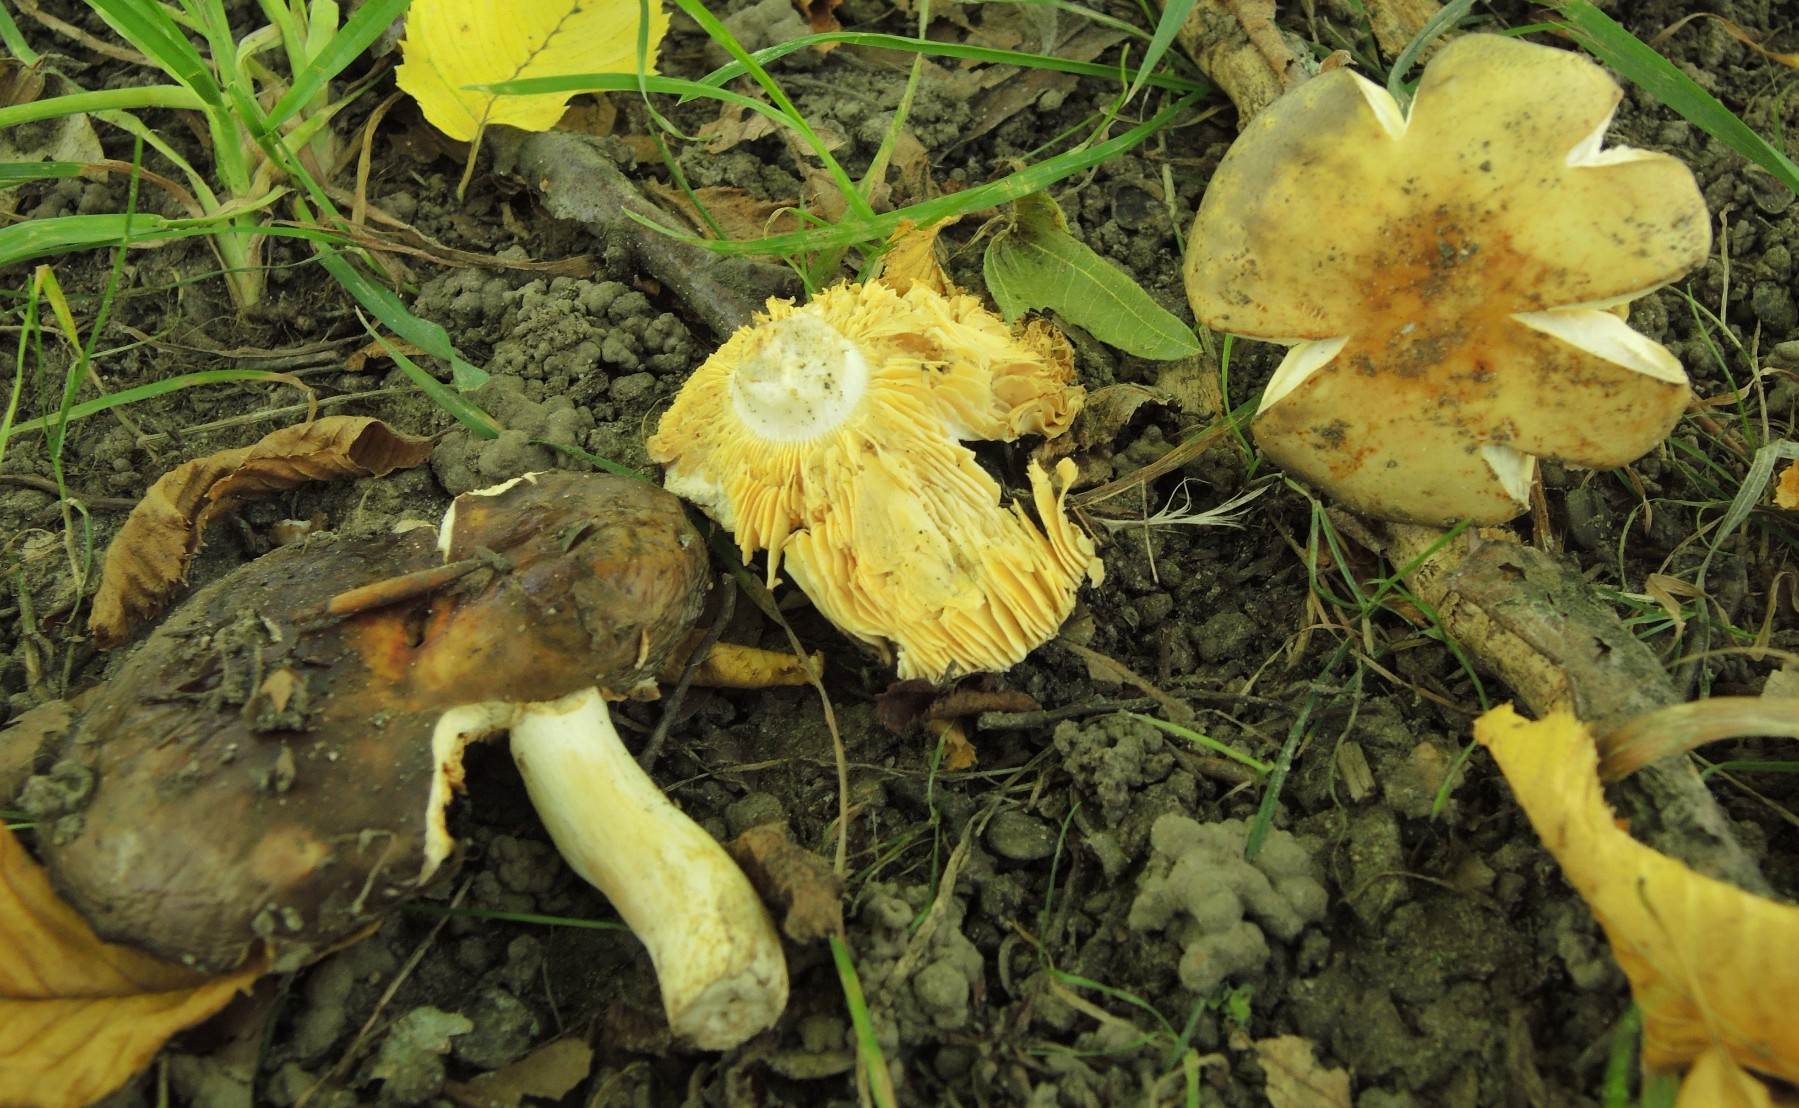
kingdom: Fungi
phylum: Basidiomycota
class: Agaricomycetes
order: Russulales
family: Russulaceae
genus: Russula
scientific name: Russula carpini
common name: avnbøg-skørhat
